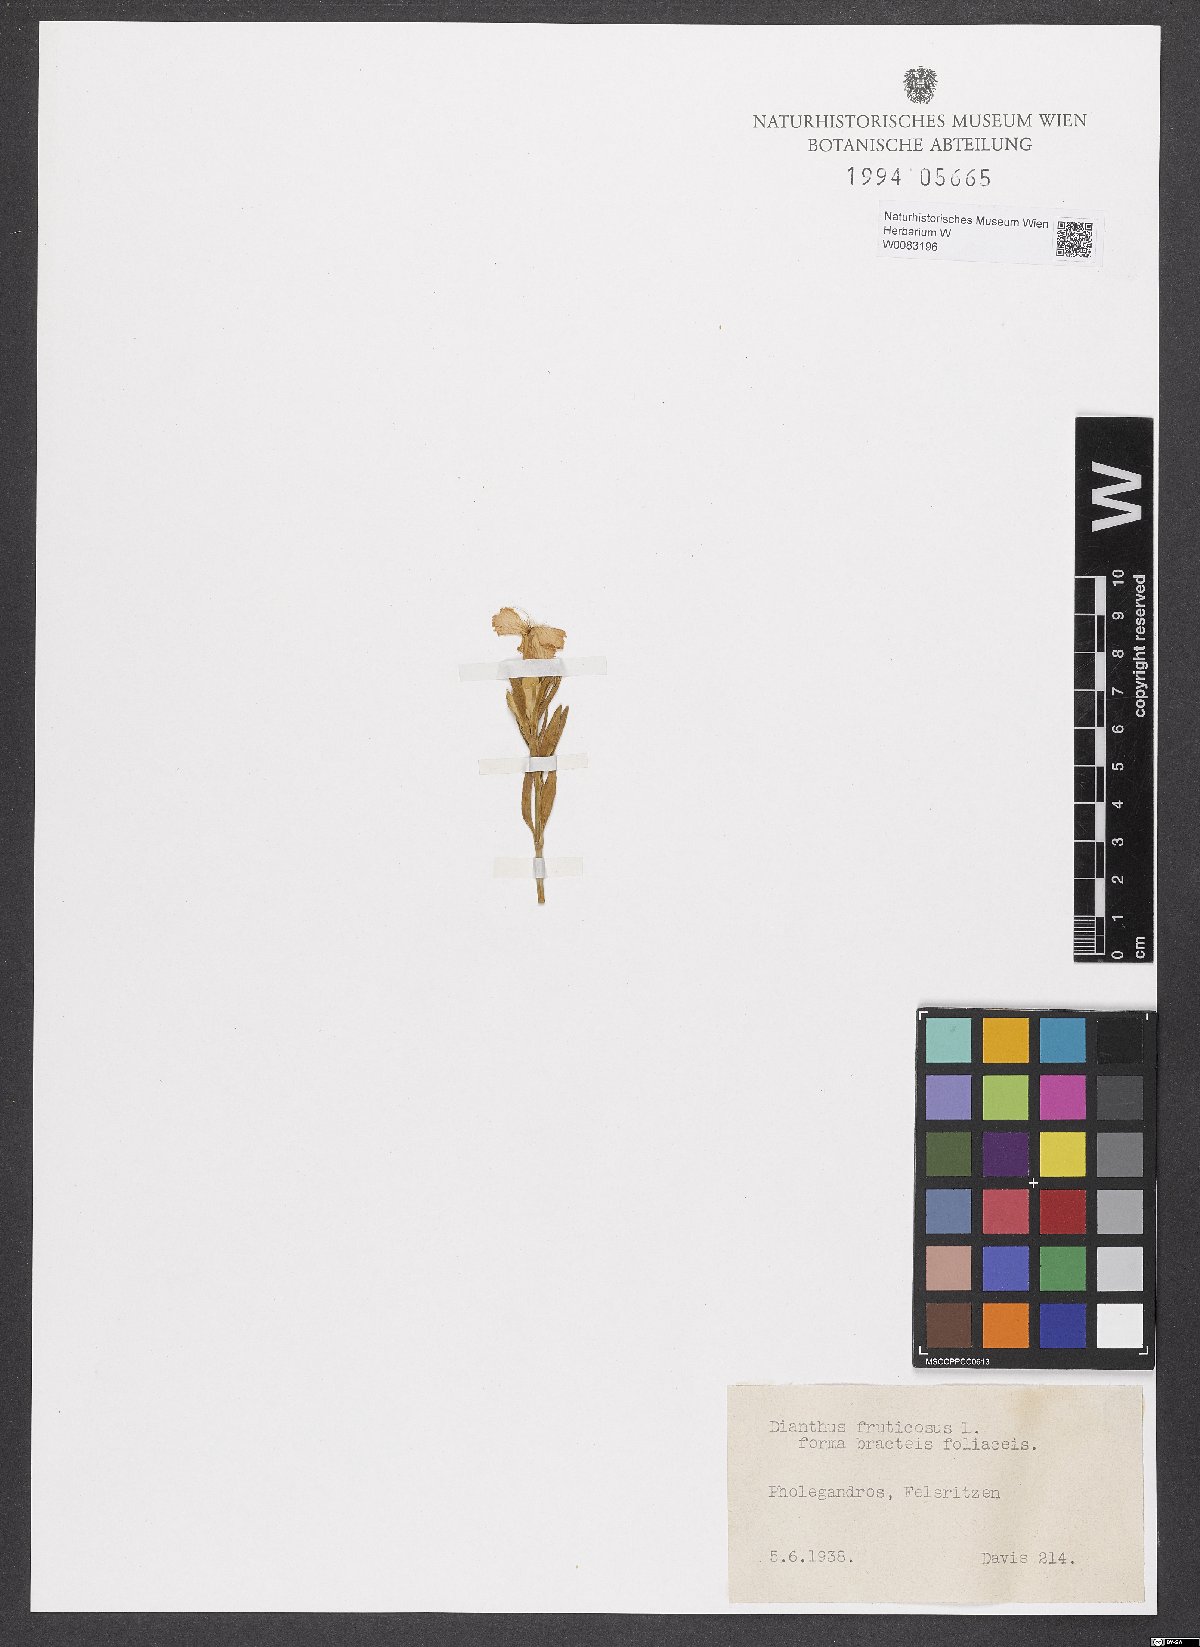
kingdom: Plantae
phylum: Tracheophyta
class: Magnoliopsida
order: Caryophyllales
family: Caryophyllaceae
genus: Dianthus
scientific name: Dianthus fruticosus
